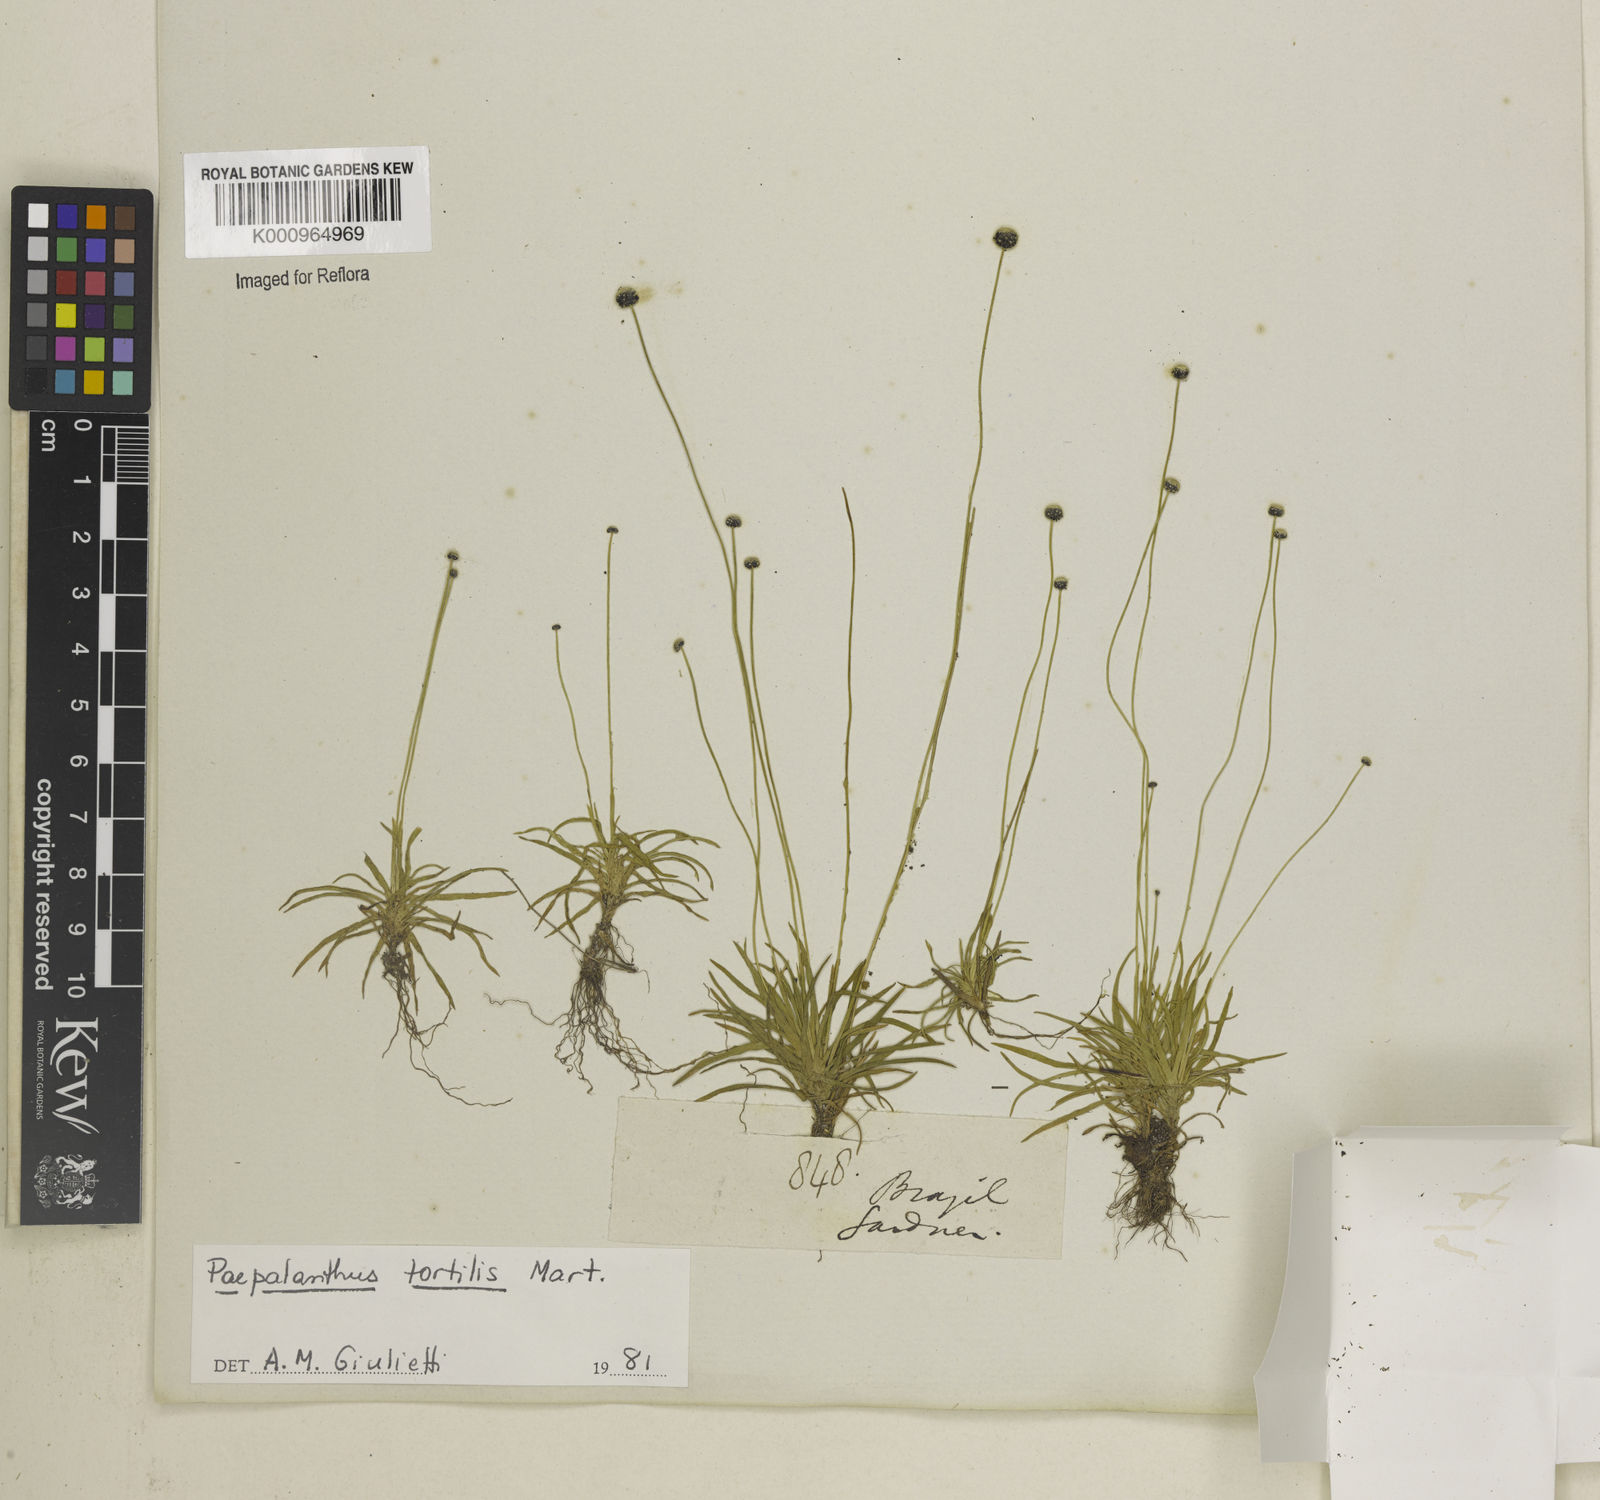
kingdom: Plantae
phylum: Tracheophyta
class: Liliopsida
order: Poales
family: Eriocaulaceae
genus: Paepalanthus
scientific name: Paepalanthus
